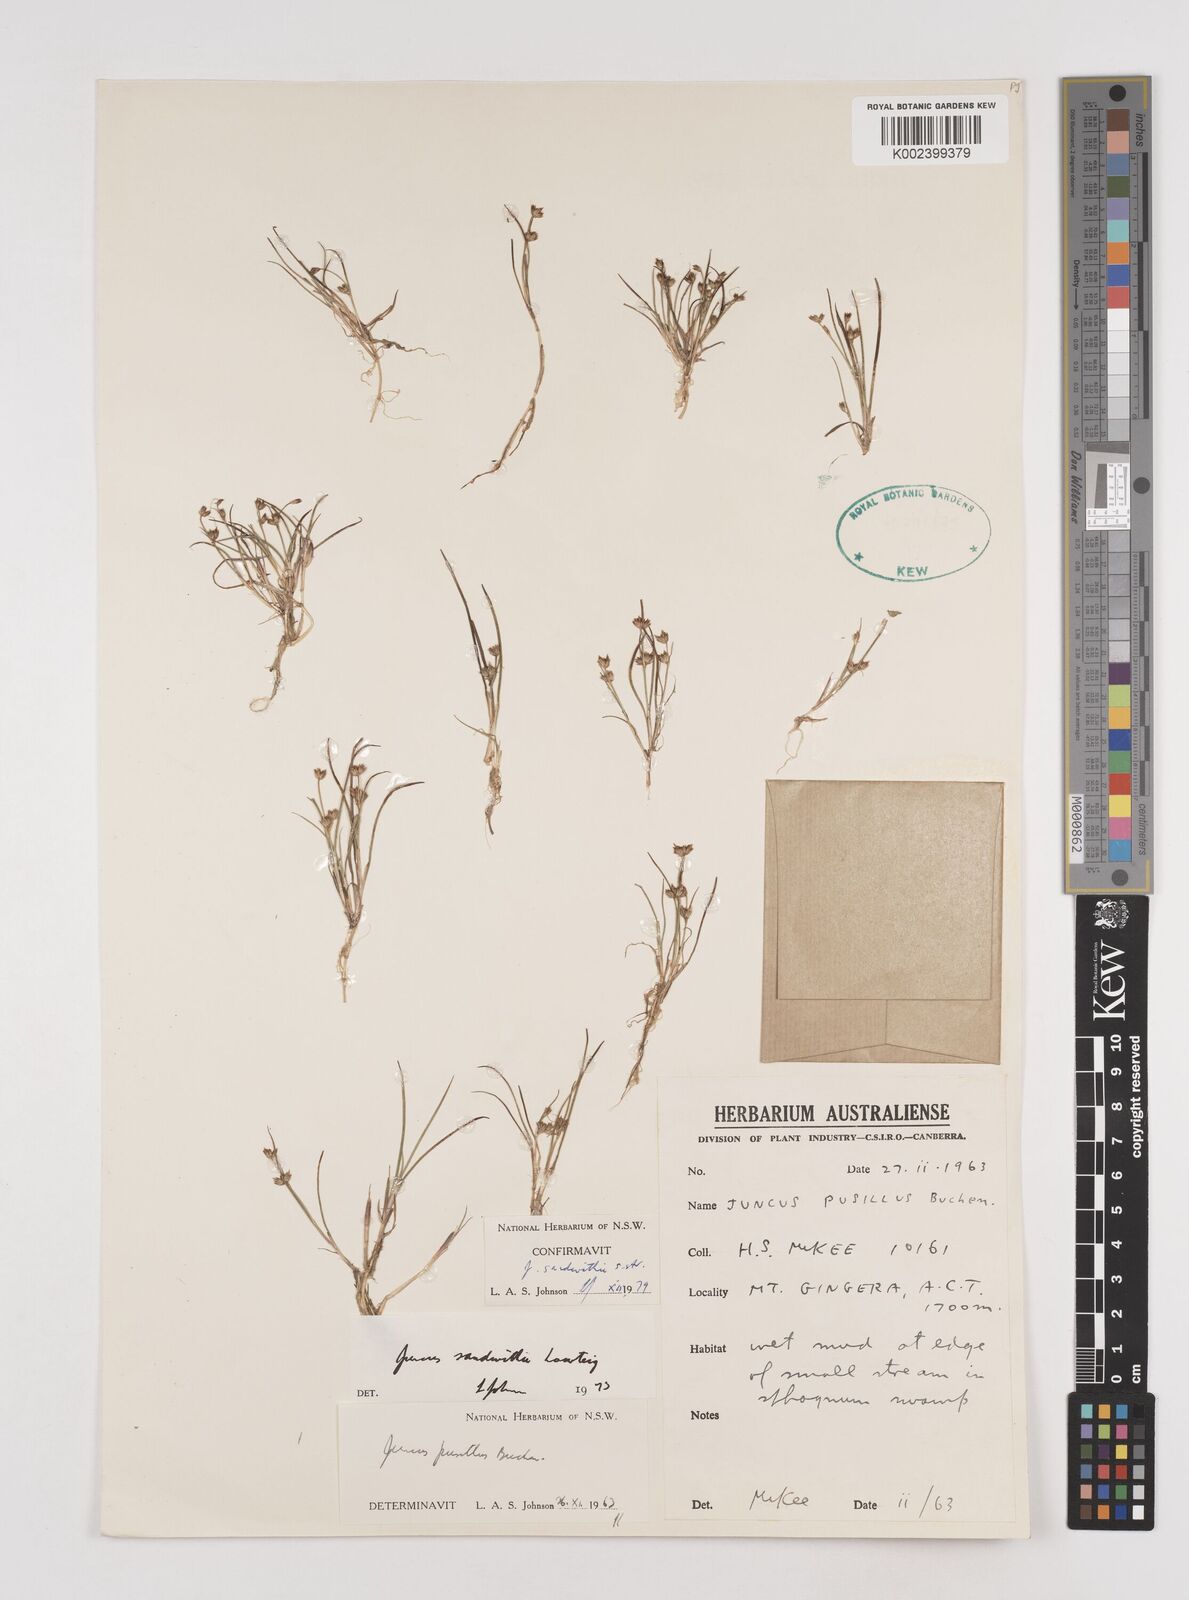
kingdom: Plantae
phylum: Tracheophyta
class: Liliopsida
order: Poales
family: Juncaceae
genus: Juncus
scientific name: Juncus sandwithii
